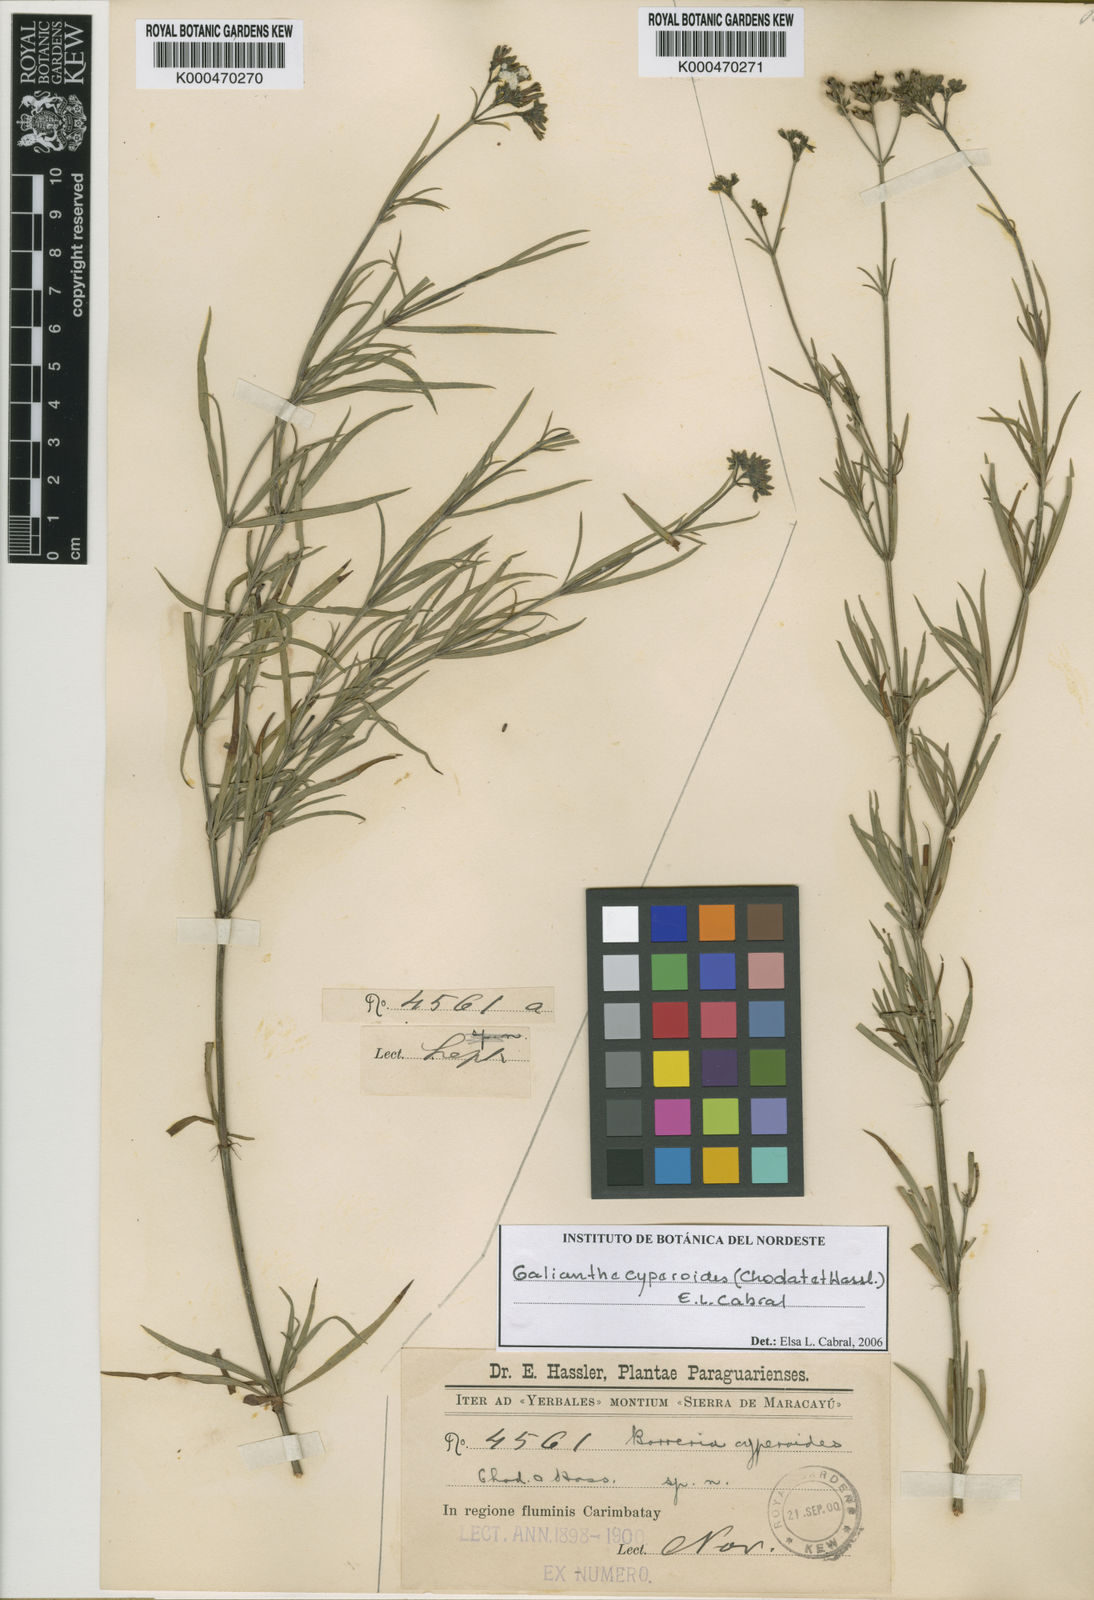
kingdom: Plantae
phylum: Tracheophyta
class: Magnoliopsida
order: Gentianales
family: Rubiaceae
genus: Galianthe
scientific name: Galianthe cyperoides
